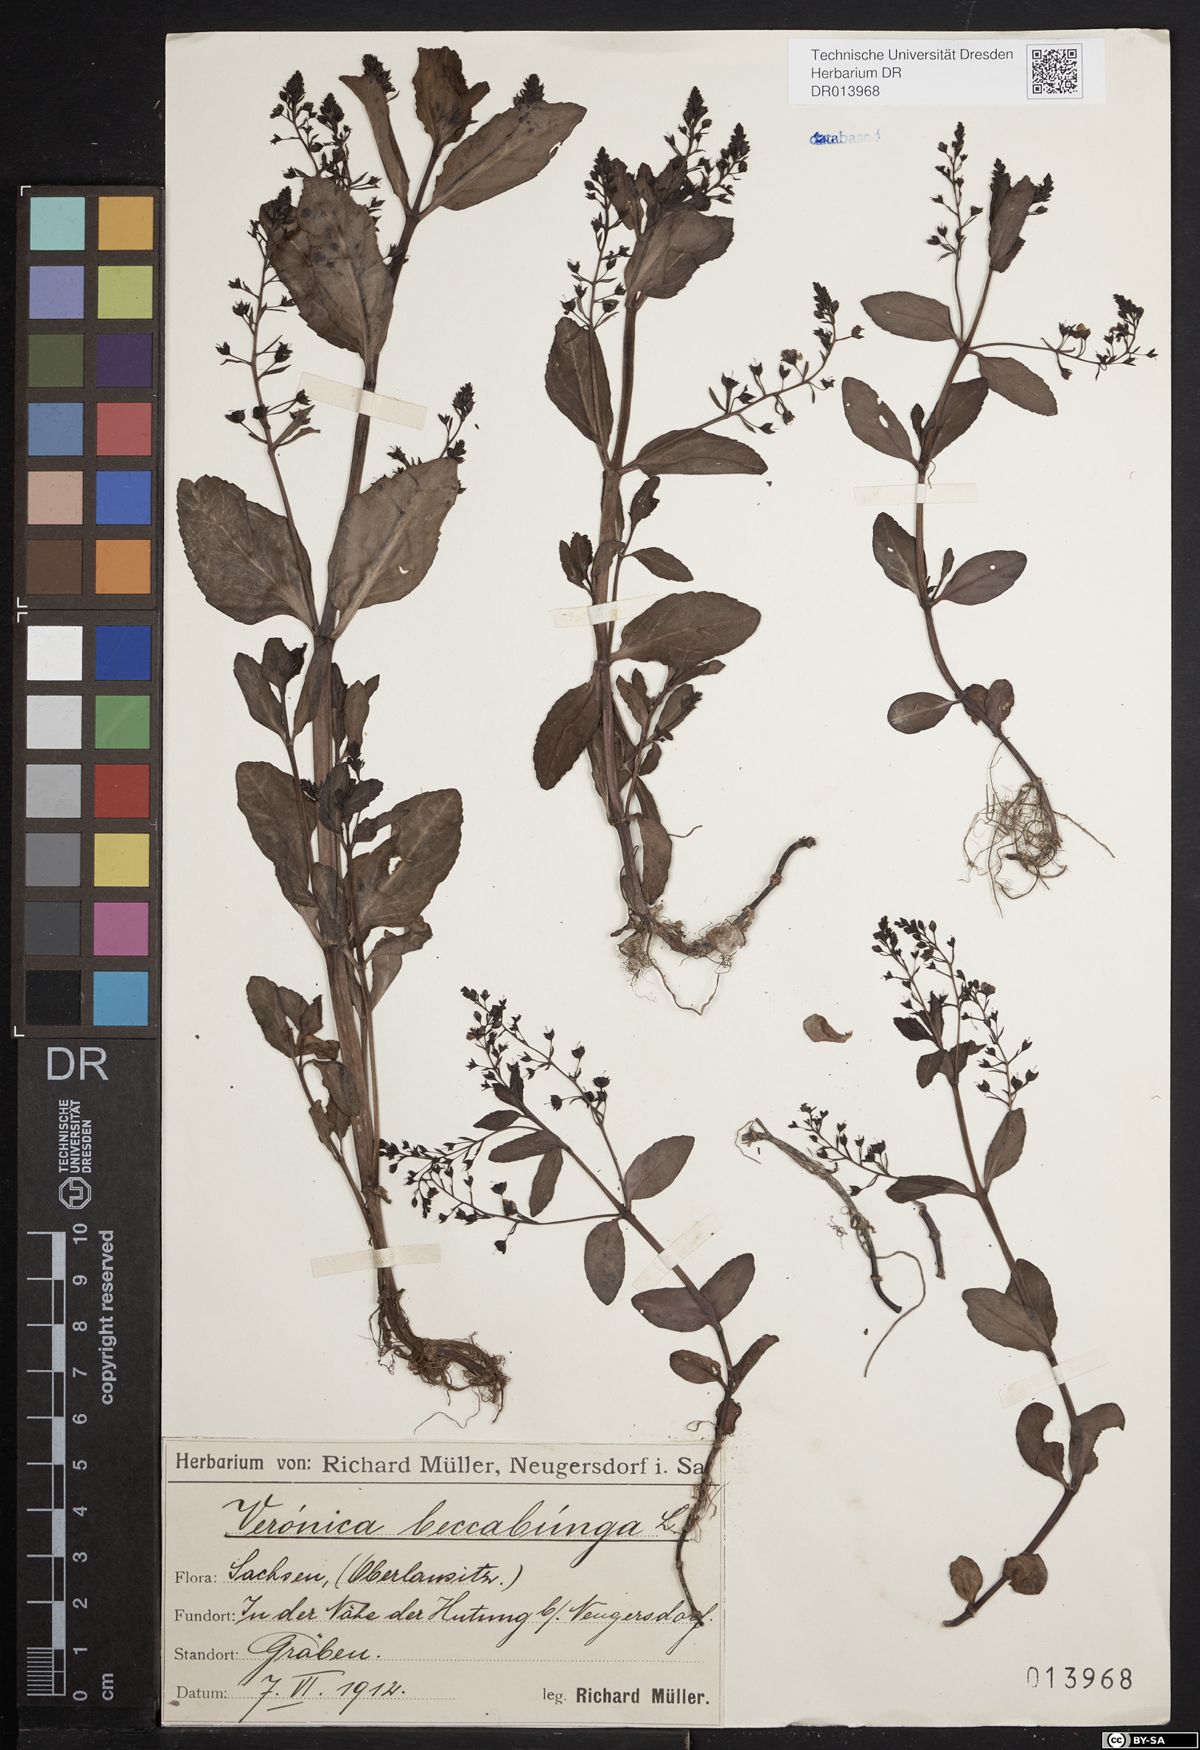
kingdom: Plantae
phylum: Tracheophyta
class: Magnoliopsida
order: Lamiales
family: Plantaginaceae
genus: Veronica
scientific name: Veronica beccabunga
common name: Brooklime
